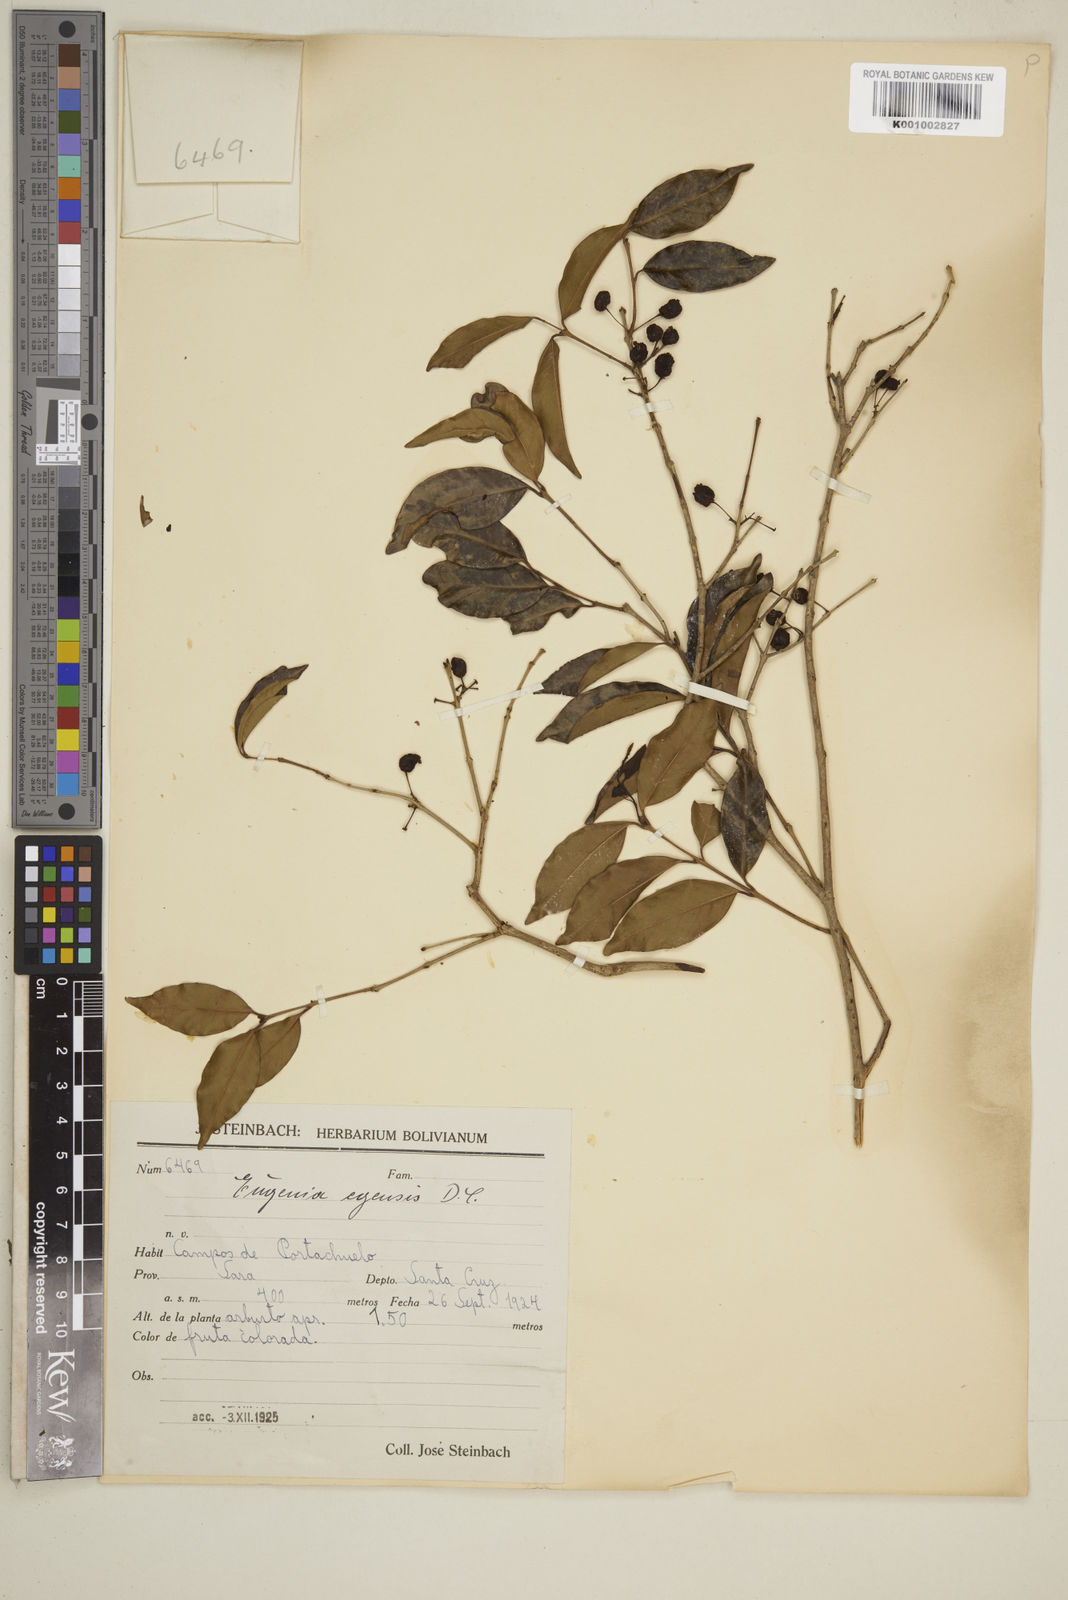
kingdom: Plantae
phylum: Tracheophyta
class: Magnoliopsida
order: Myrtales
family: Myrtaceae
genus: Eugenia
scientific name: Eugenia egensis
